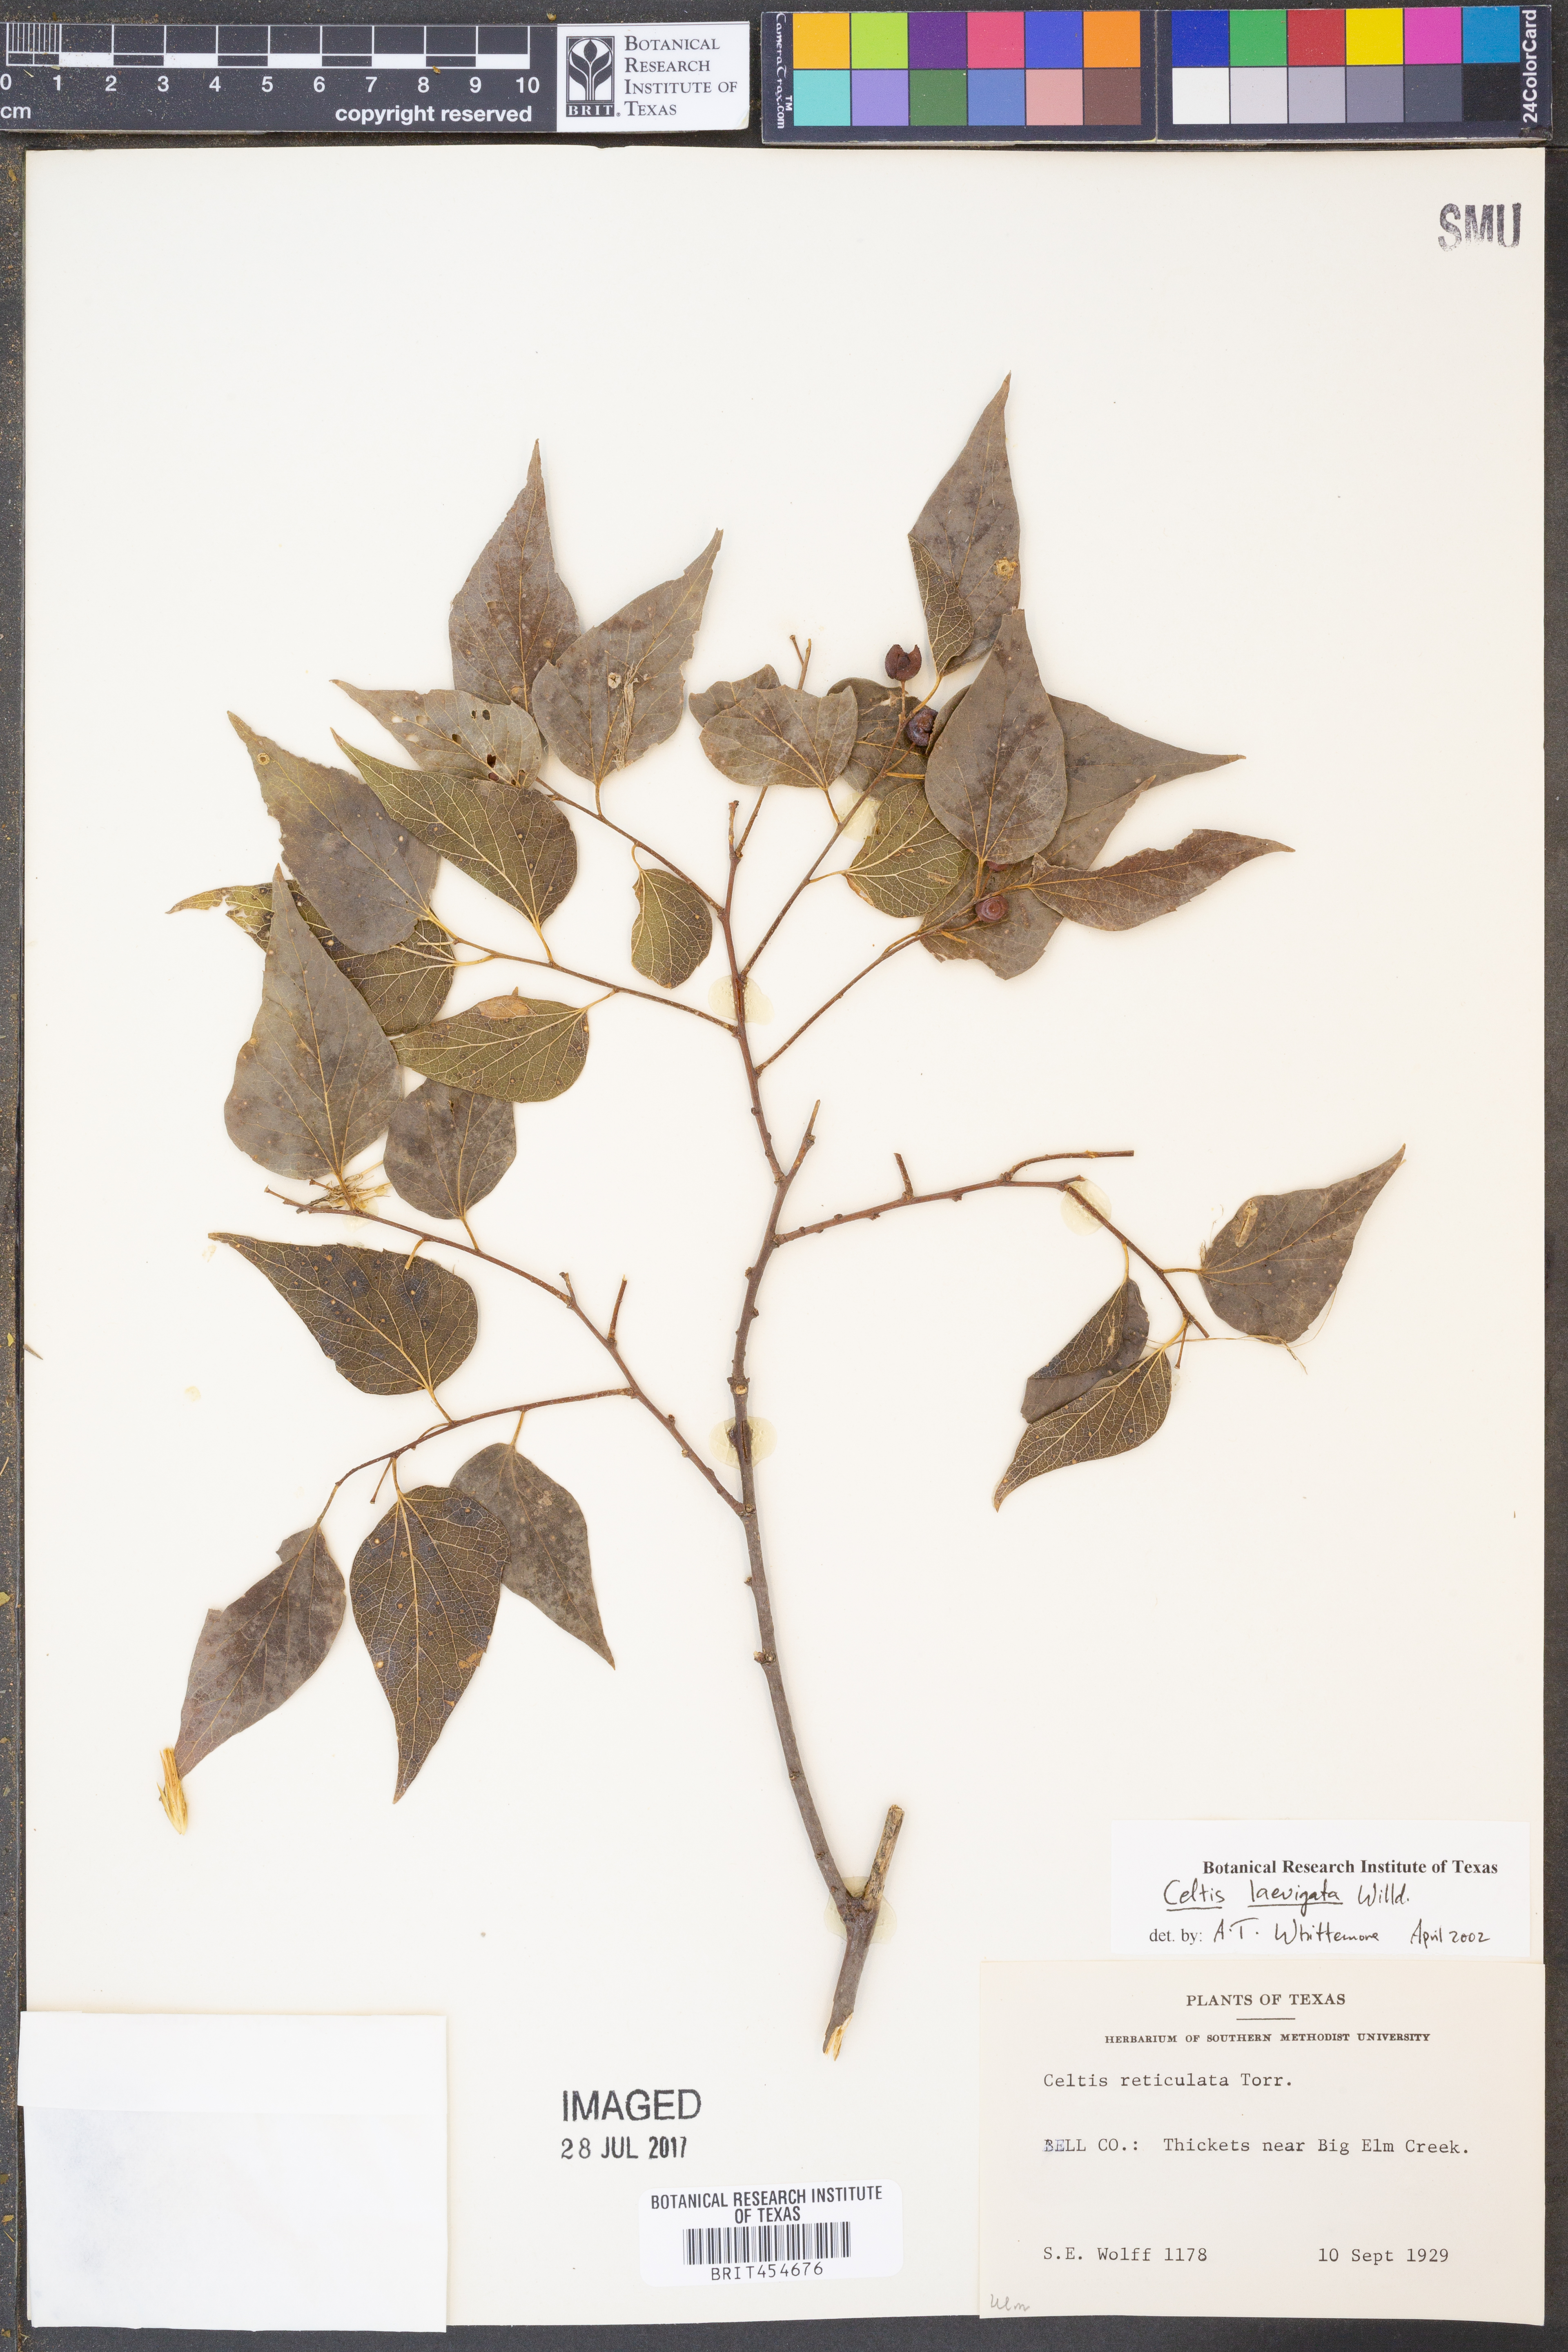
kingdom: Plantae
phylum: Tracheophyta
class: Magnoliopsida
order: Rosales
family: Cannabaceae
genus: Celtis
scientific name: Celtis laevigata
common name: Sugarberry
